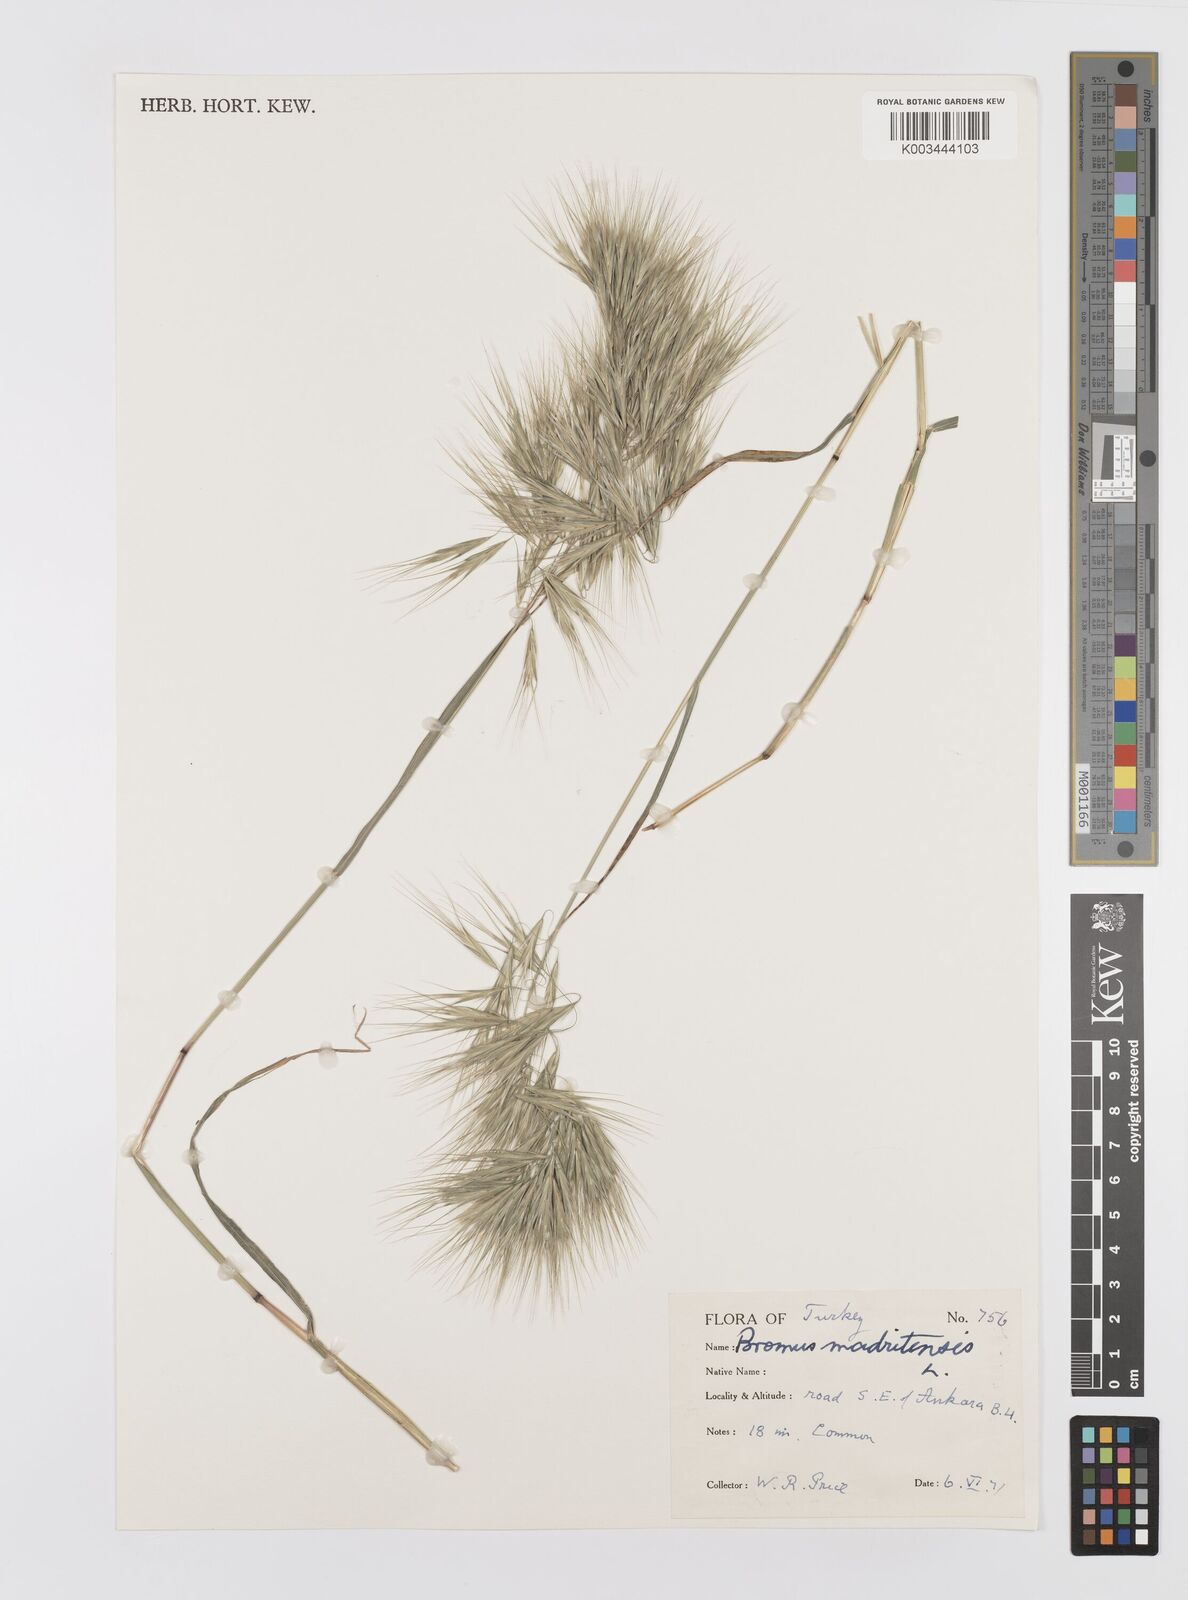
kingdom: Plantae
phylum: Tracheophyta
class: Liliopsida
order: Poales
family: Poaceae
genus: Bromus
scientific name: Bromus madritensis
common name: Compact brome
